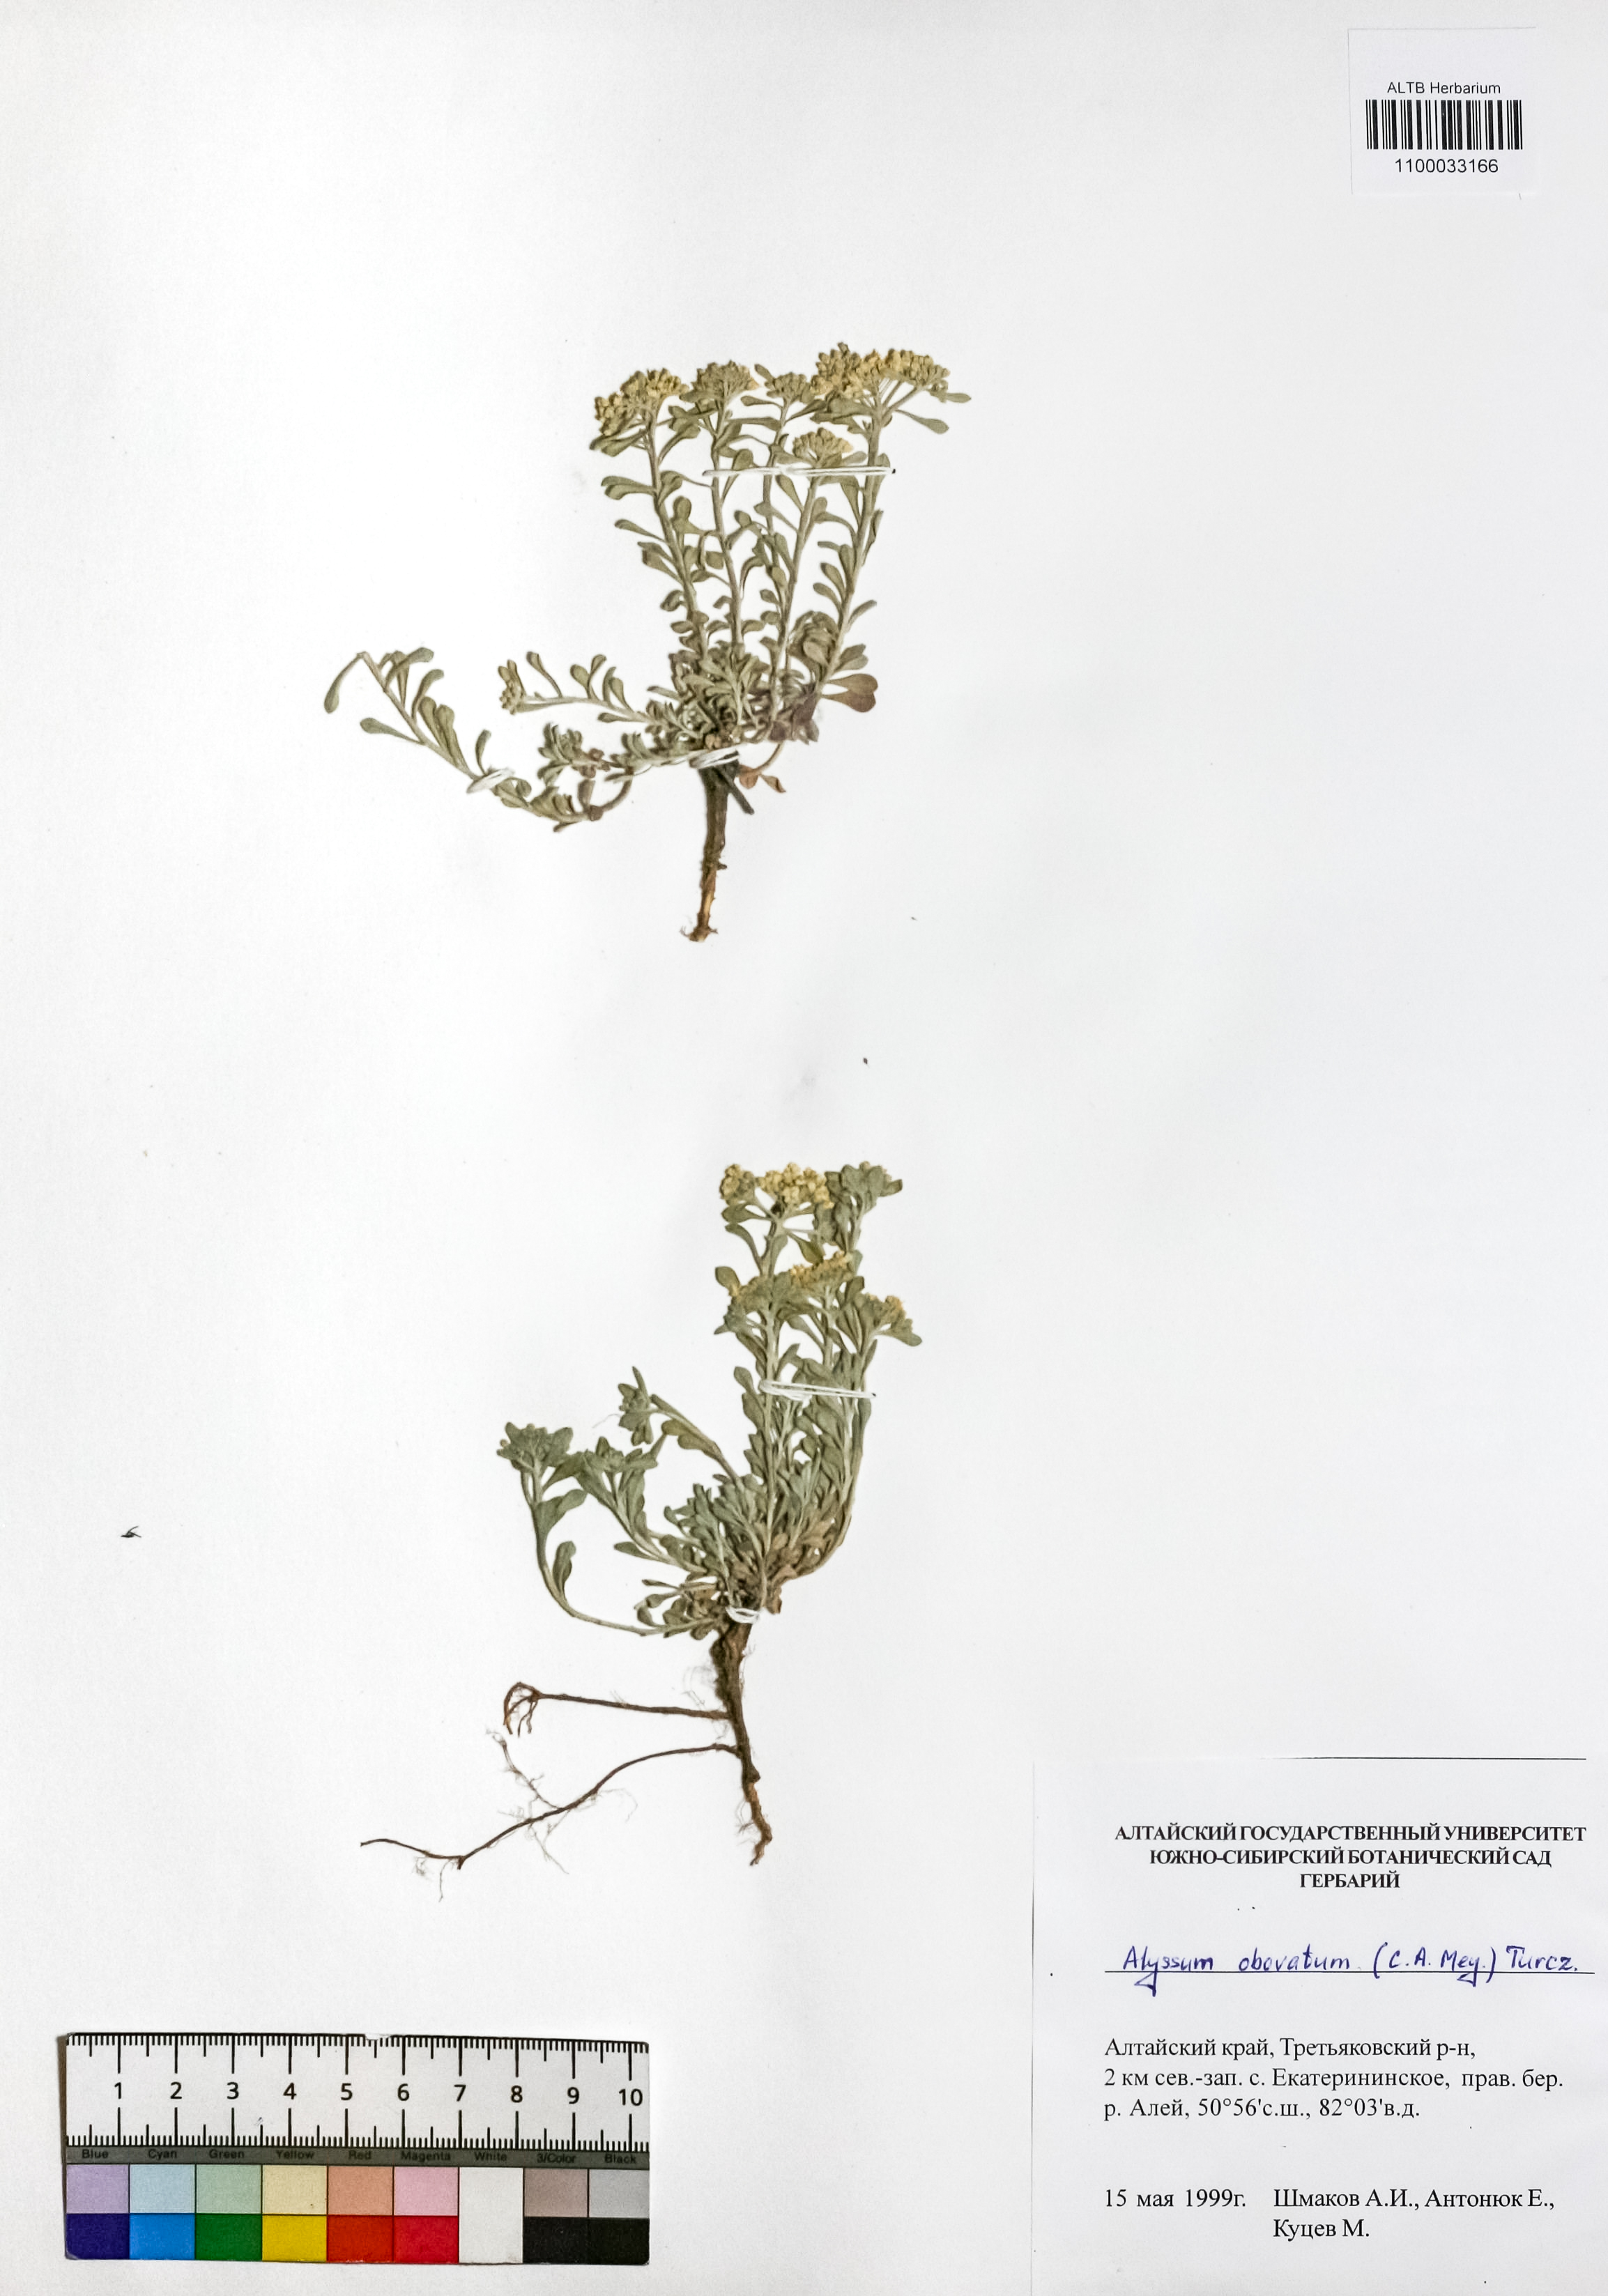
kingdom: Plantae
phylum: Tracheophyta
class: Magnoliopsida
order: Brassicales
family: Brassicaceae
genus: Odontarrhena
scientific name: Odontarrhena obovata
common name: American alyssum
